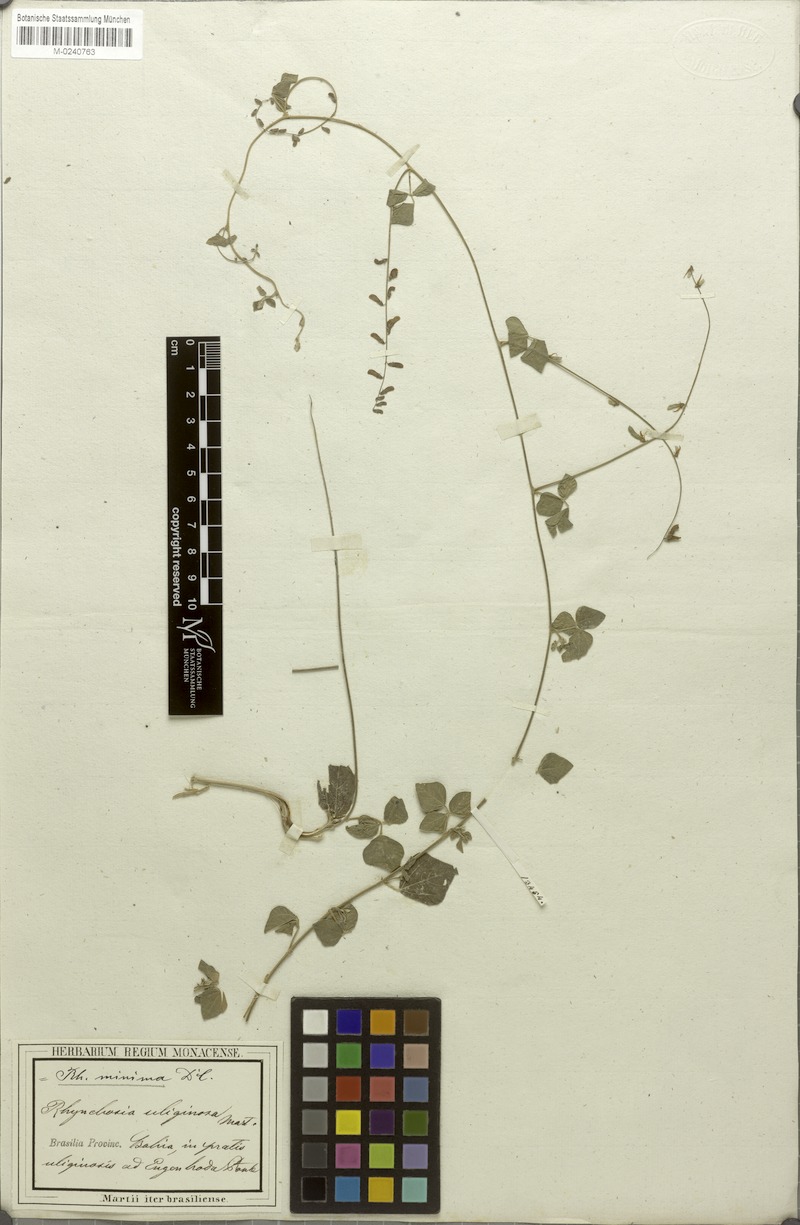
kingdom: Plantae
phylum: Tracheophyta
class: Magnoliopsida
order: Fabales
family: Fabaceae
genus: Rhynchosia
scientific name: Rhynchosia minima
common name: Least snoutbean
